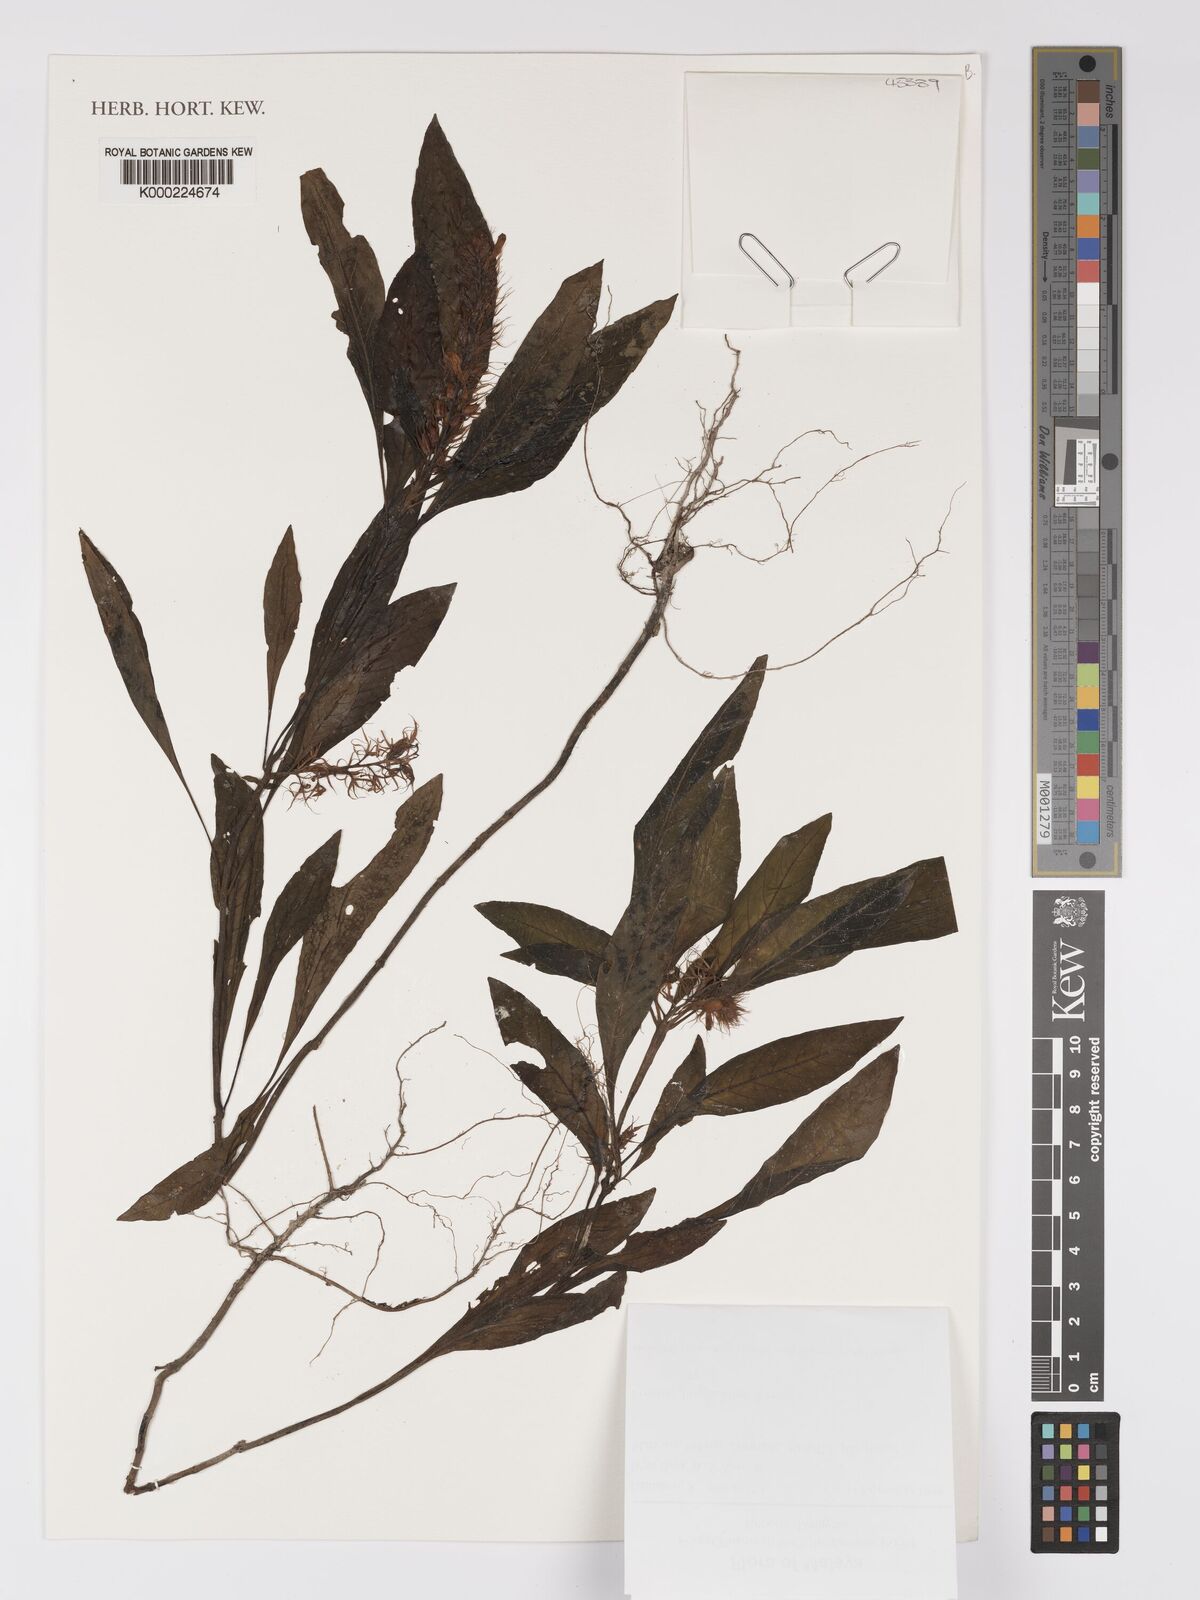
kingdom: Plantae
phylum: Tracheophyta
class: Magnoliopsida
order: Lamiales
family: Acanthaceae
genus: Staurogyne
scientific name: Staurogyne longifolia
